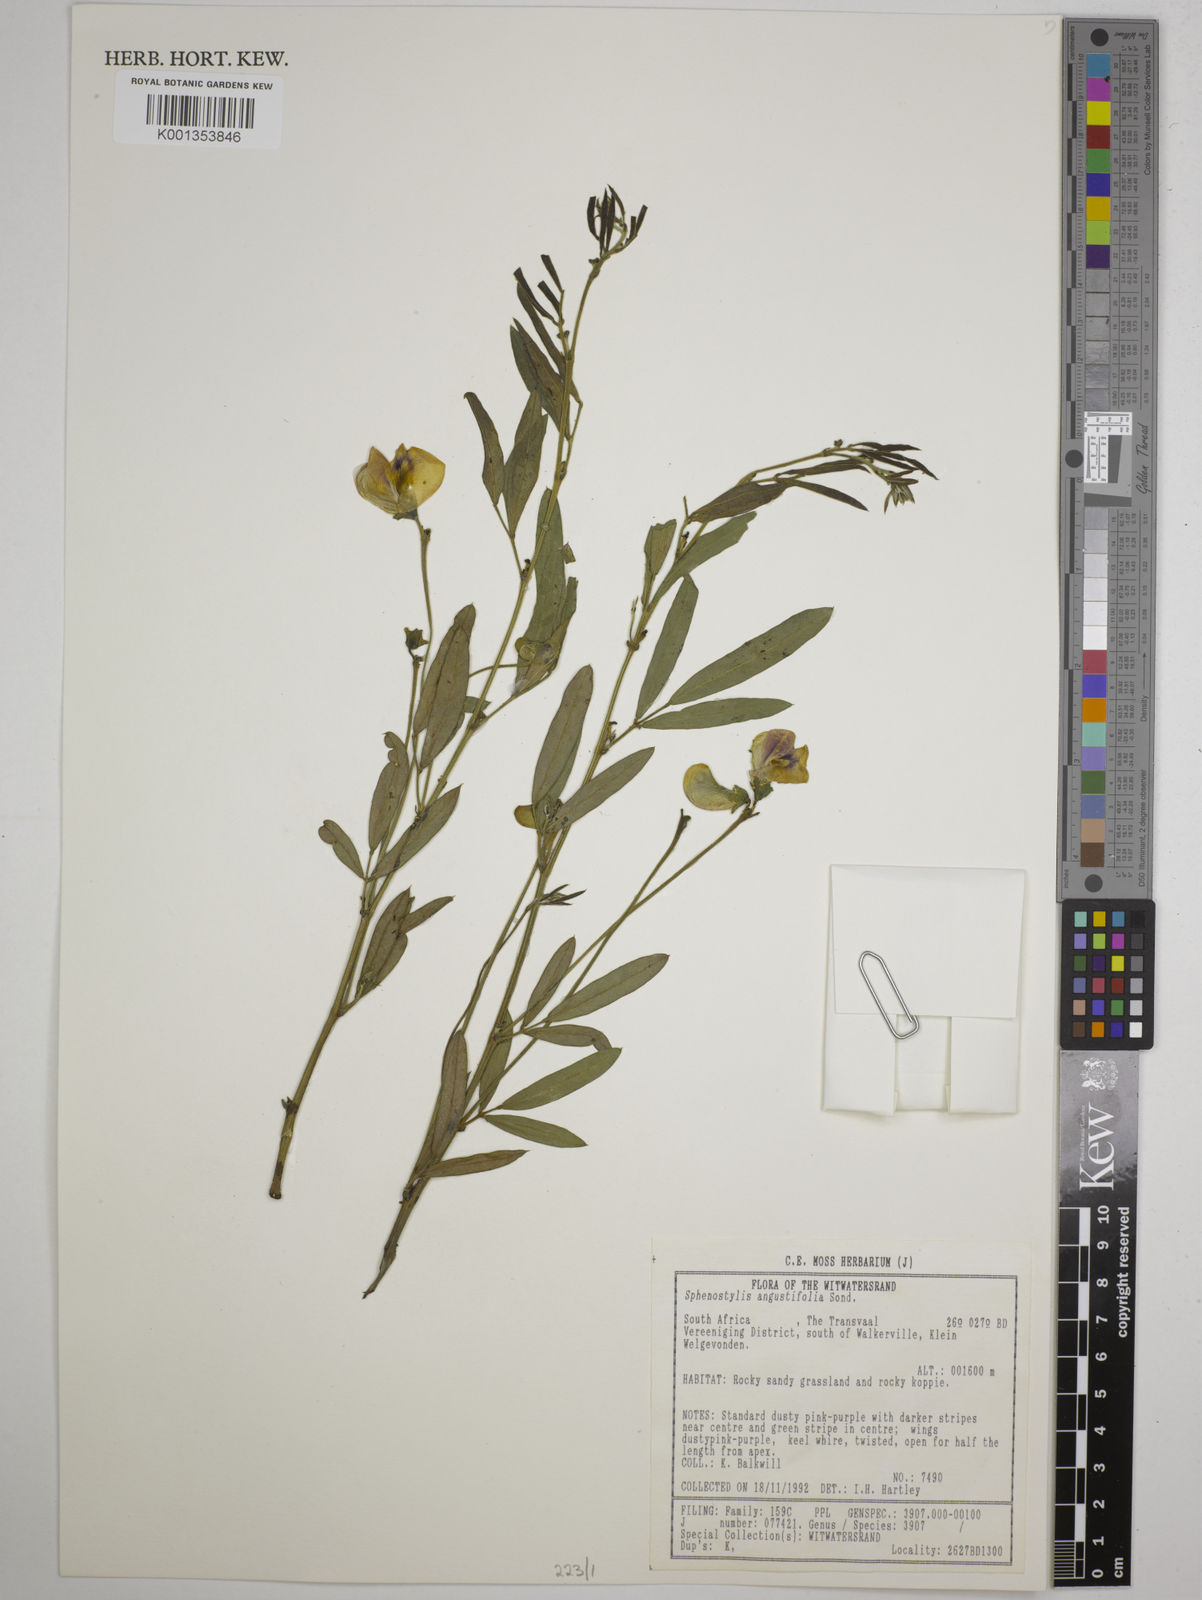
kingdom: Plantae
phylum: Tracheophyta
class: Magnoliopsida
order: Fabales
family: Fabaceae
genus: Sphenostylis
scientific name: Sphenostylis angustifolia
